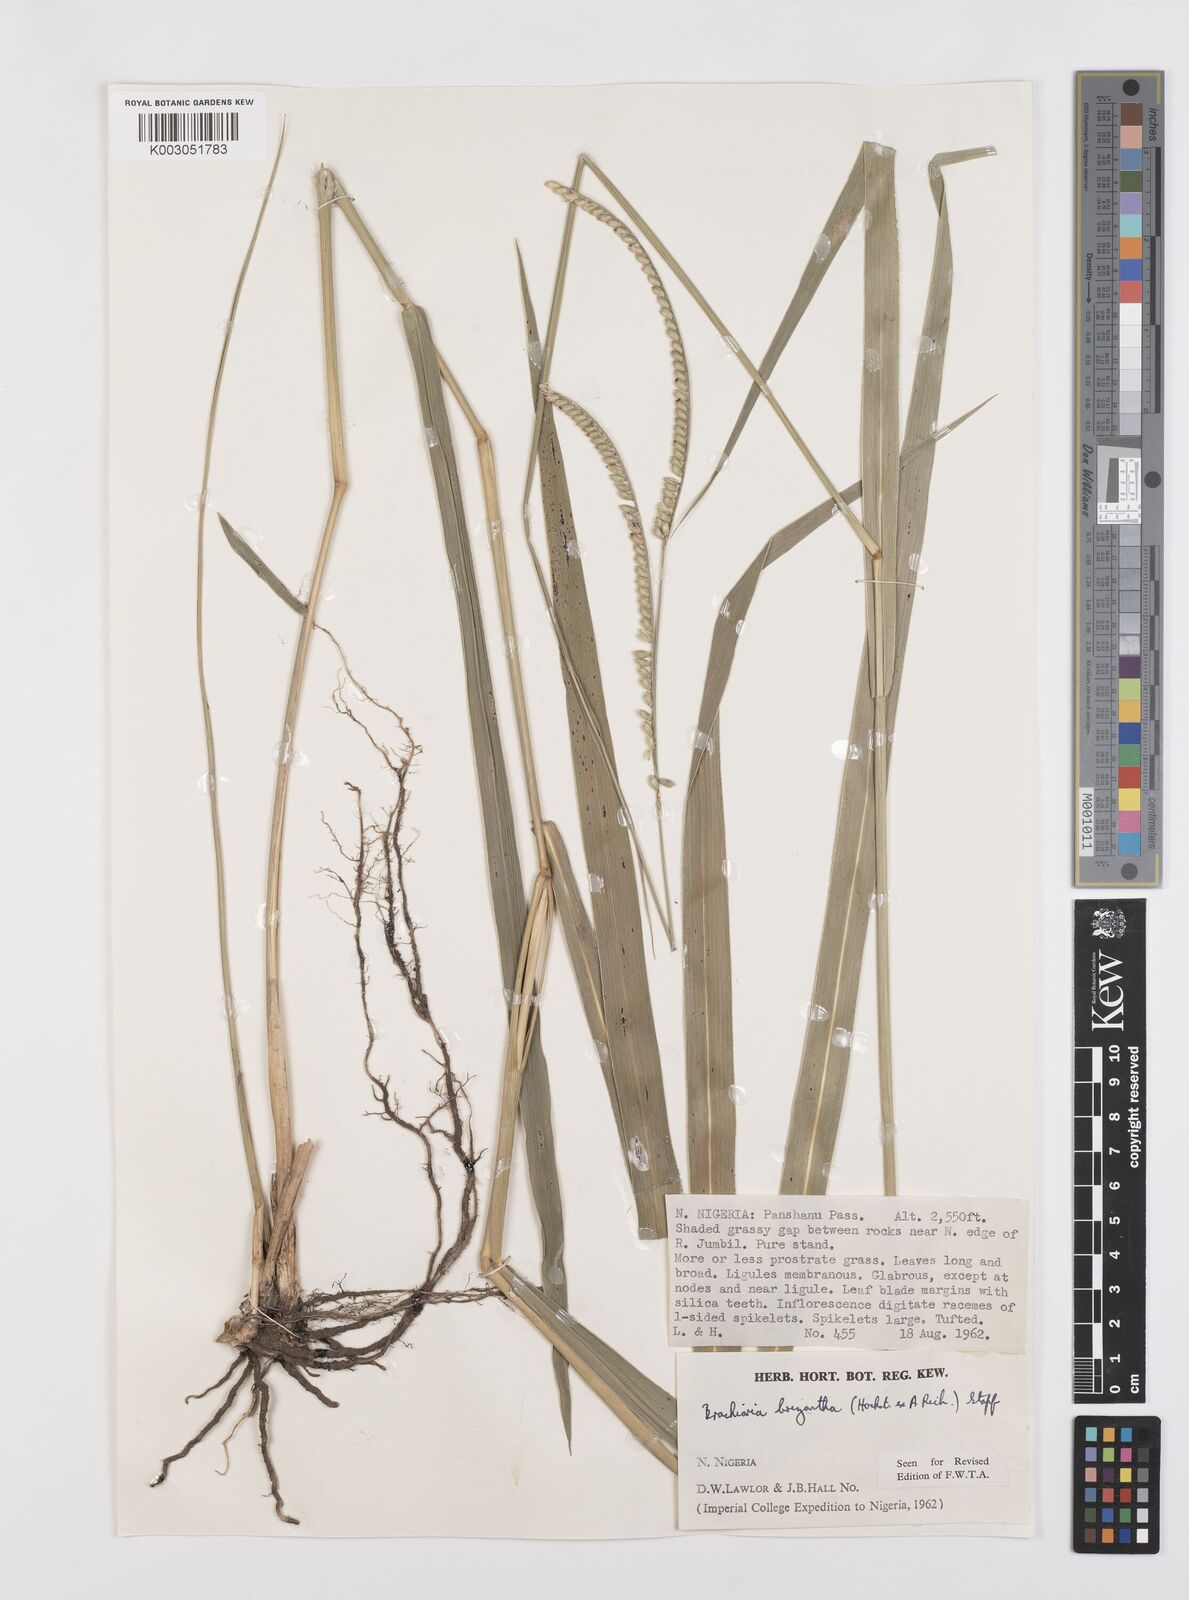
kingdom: Plantae
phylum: Tracheophyta
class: Liliopsida
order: Poales
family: Poaceae
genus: Urochloa
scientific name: Urochloa brizantha
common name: Palisade signalgrass
